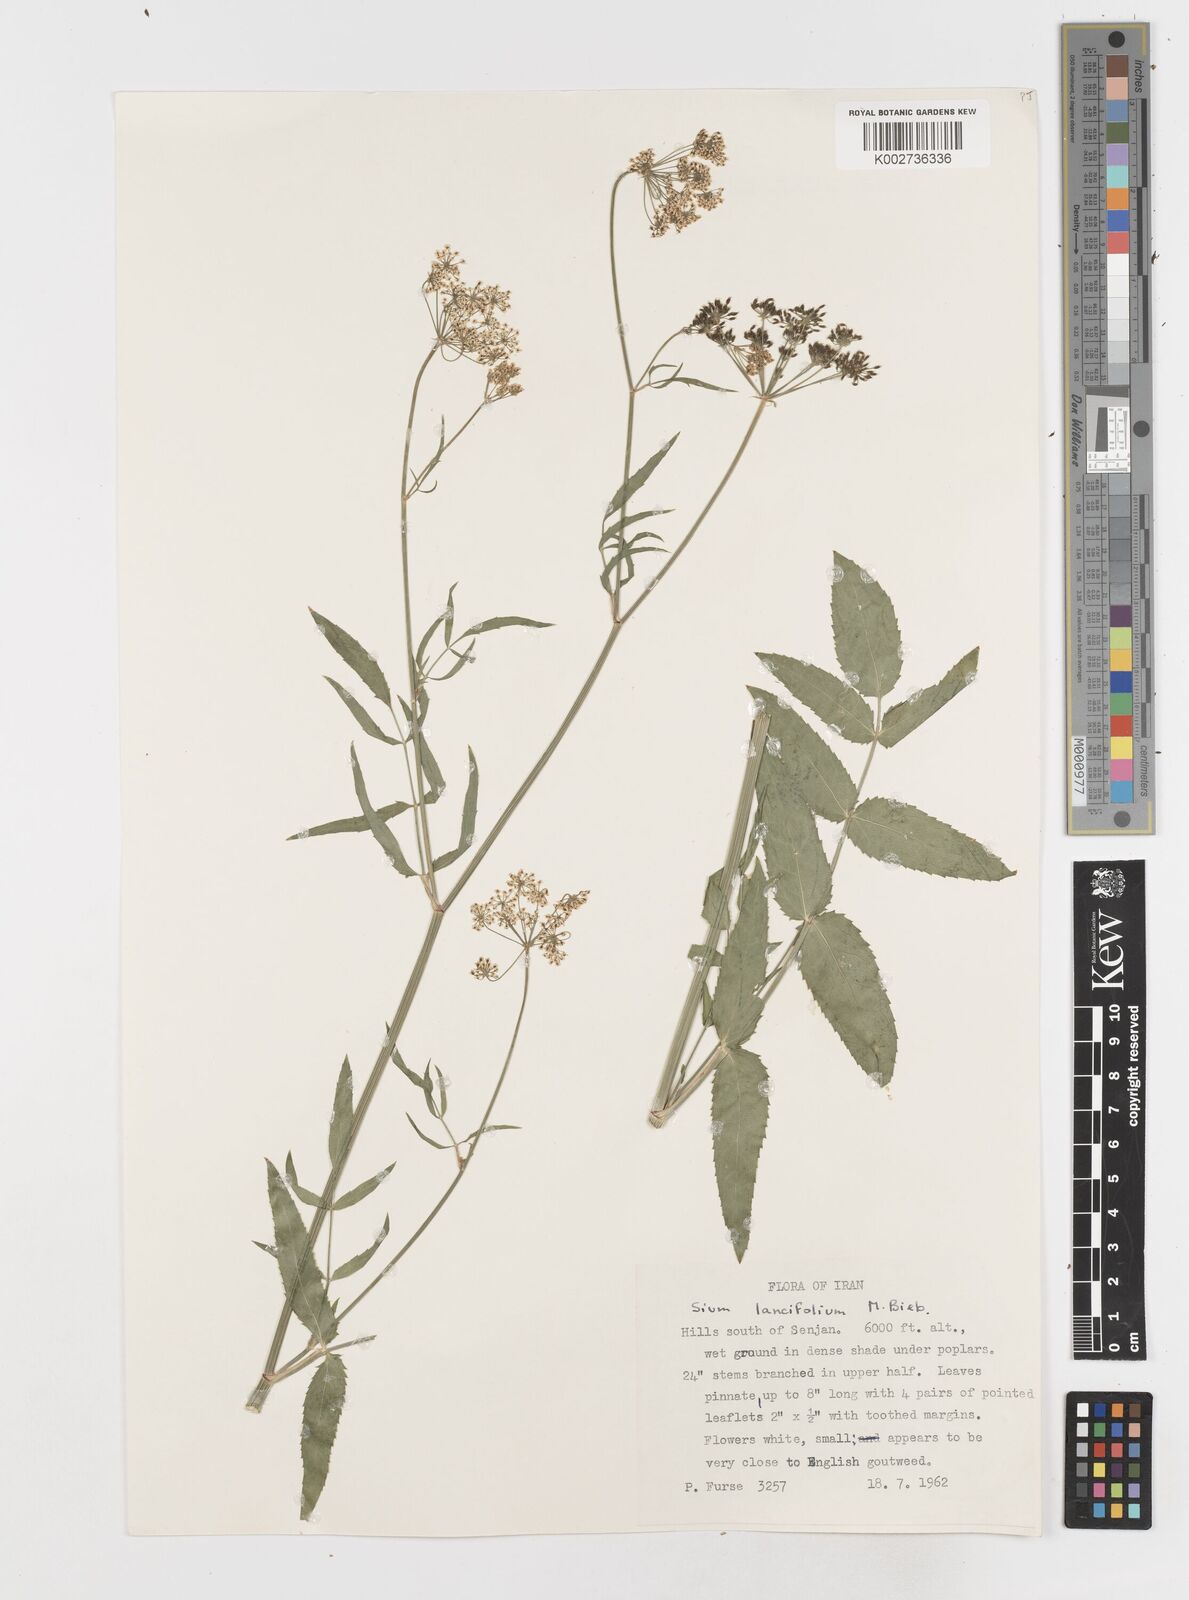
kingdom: Plantae
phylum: Tracheophyta
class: Magnoliopsida
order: Apiales
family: Apiaceae
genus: Sium
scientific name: Sium sisarum
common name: Skirret
